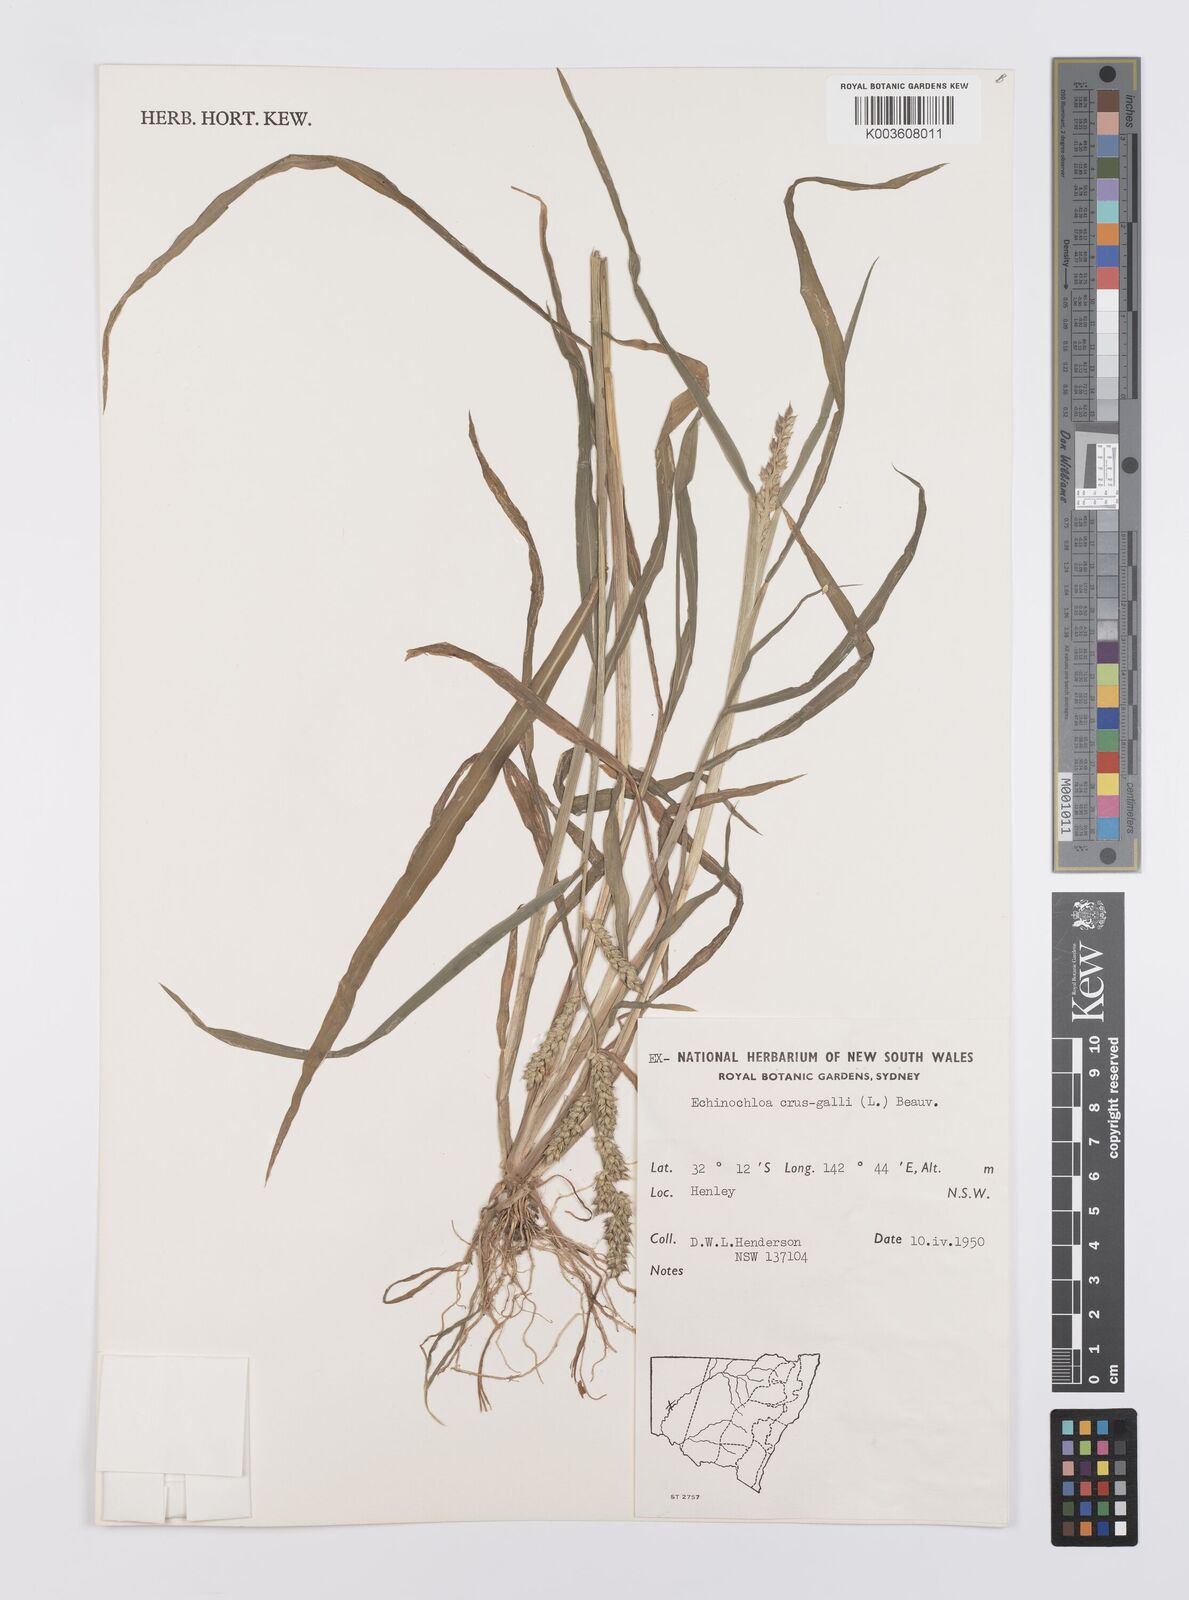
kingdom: Plantae
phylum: Tracheophyta
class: Liliopsida
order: Poales
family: Poaceae
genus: Echinochloa
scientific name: Echinochloa crus-galli
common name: Cockspur
